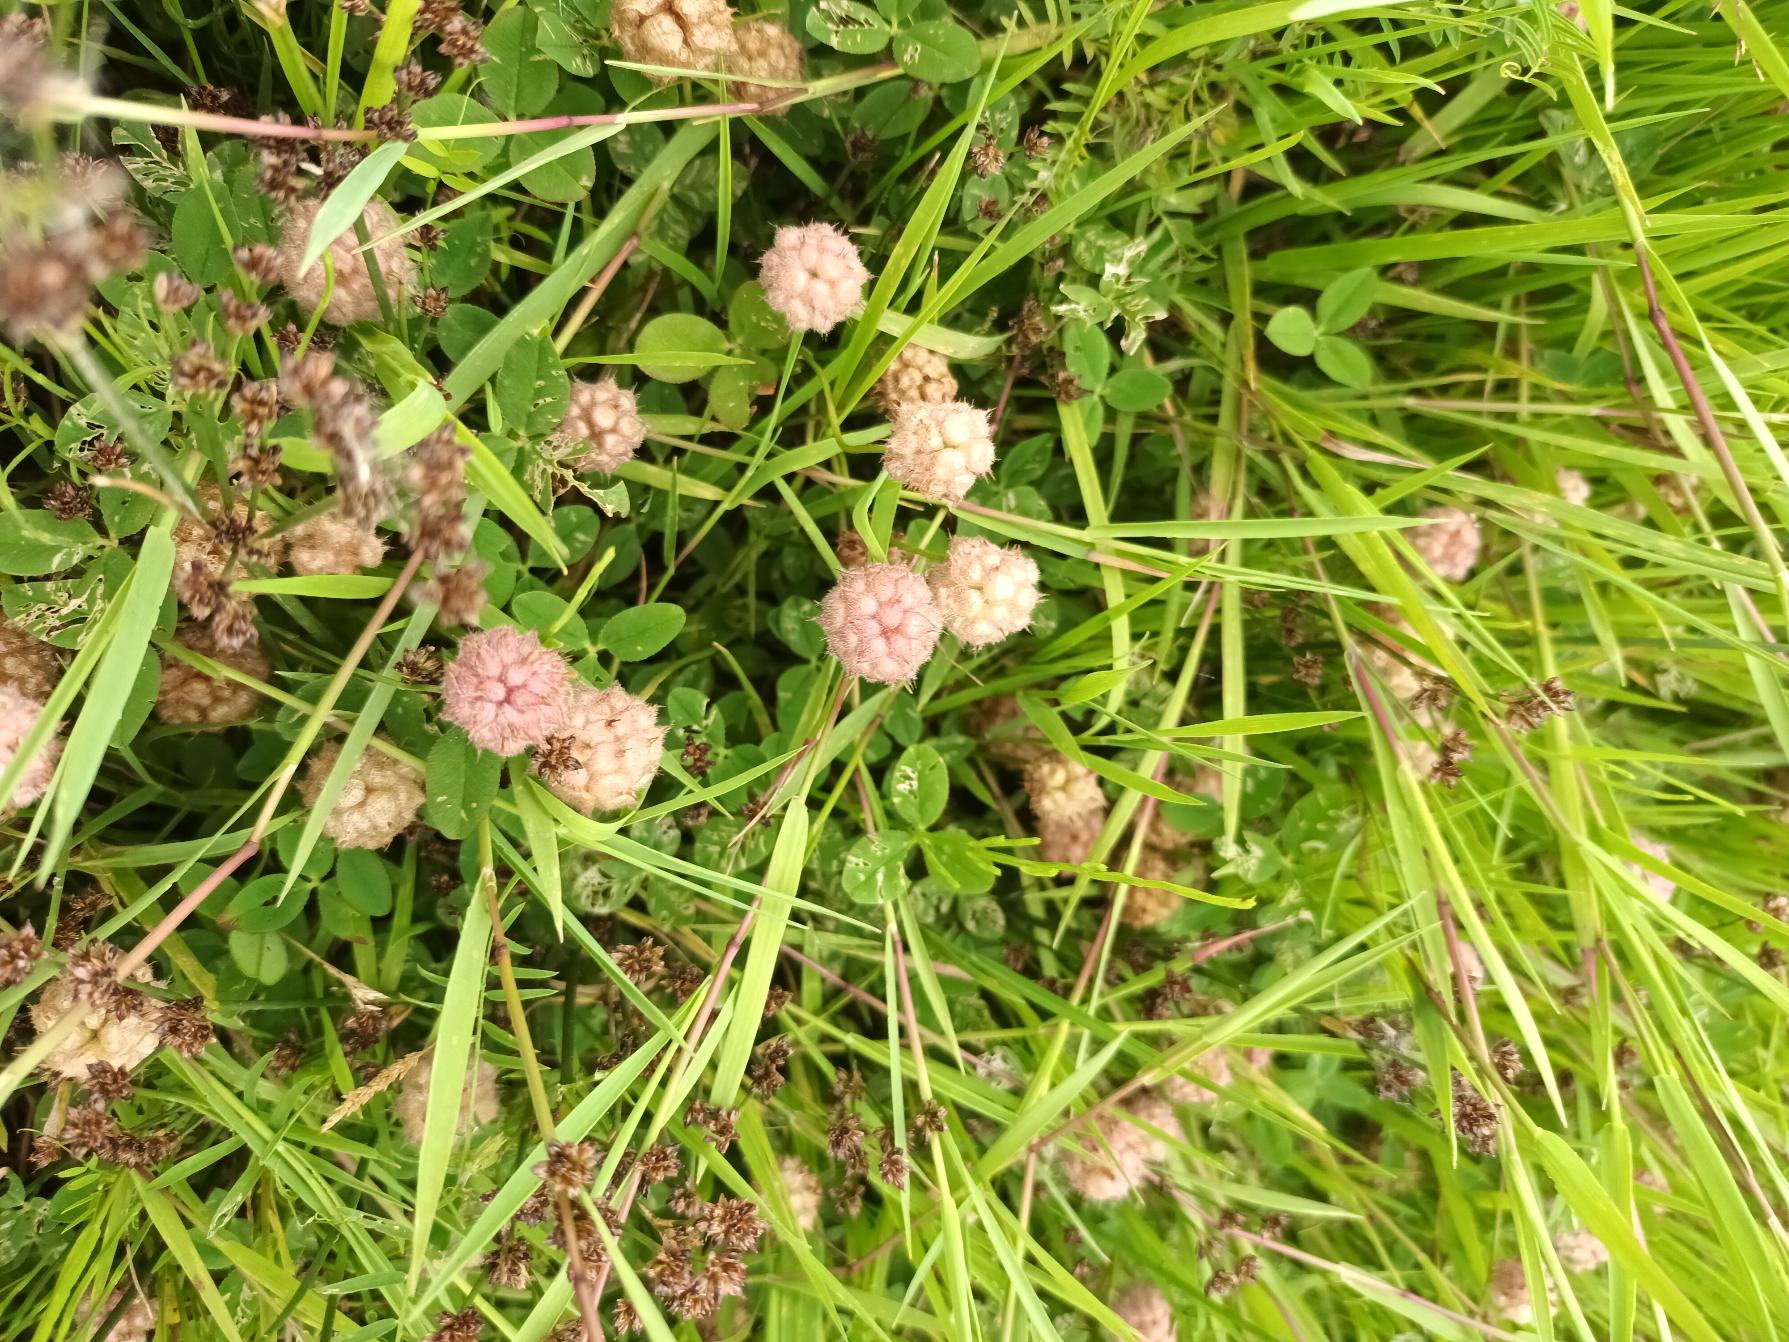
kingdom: Plantae
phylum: Tracheophyta
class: Magnoliopsida
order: Fabales
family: Fabaceae
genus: Trifolium
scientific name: Trifolium fragiferum
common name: Jordbær-kløver
